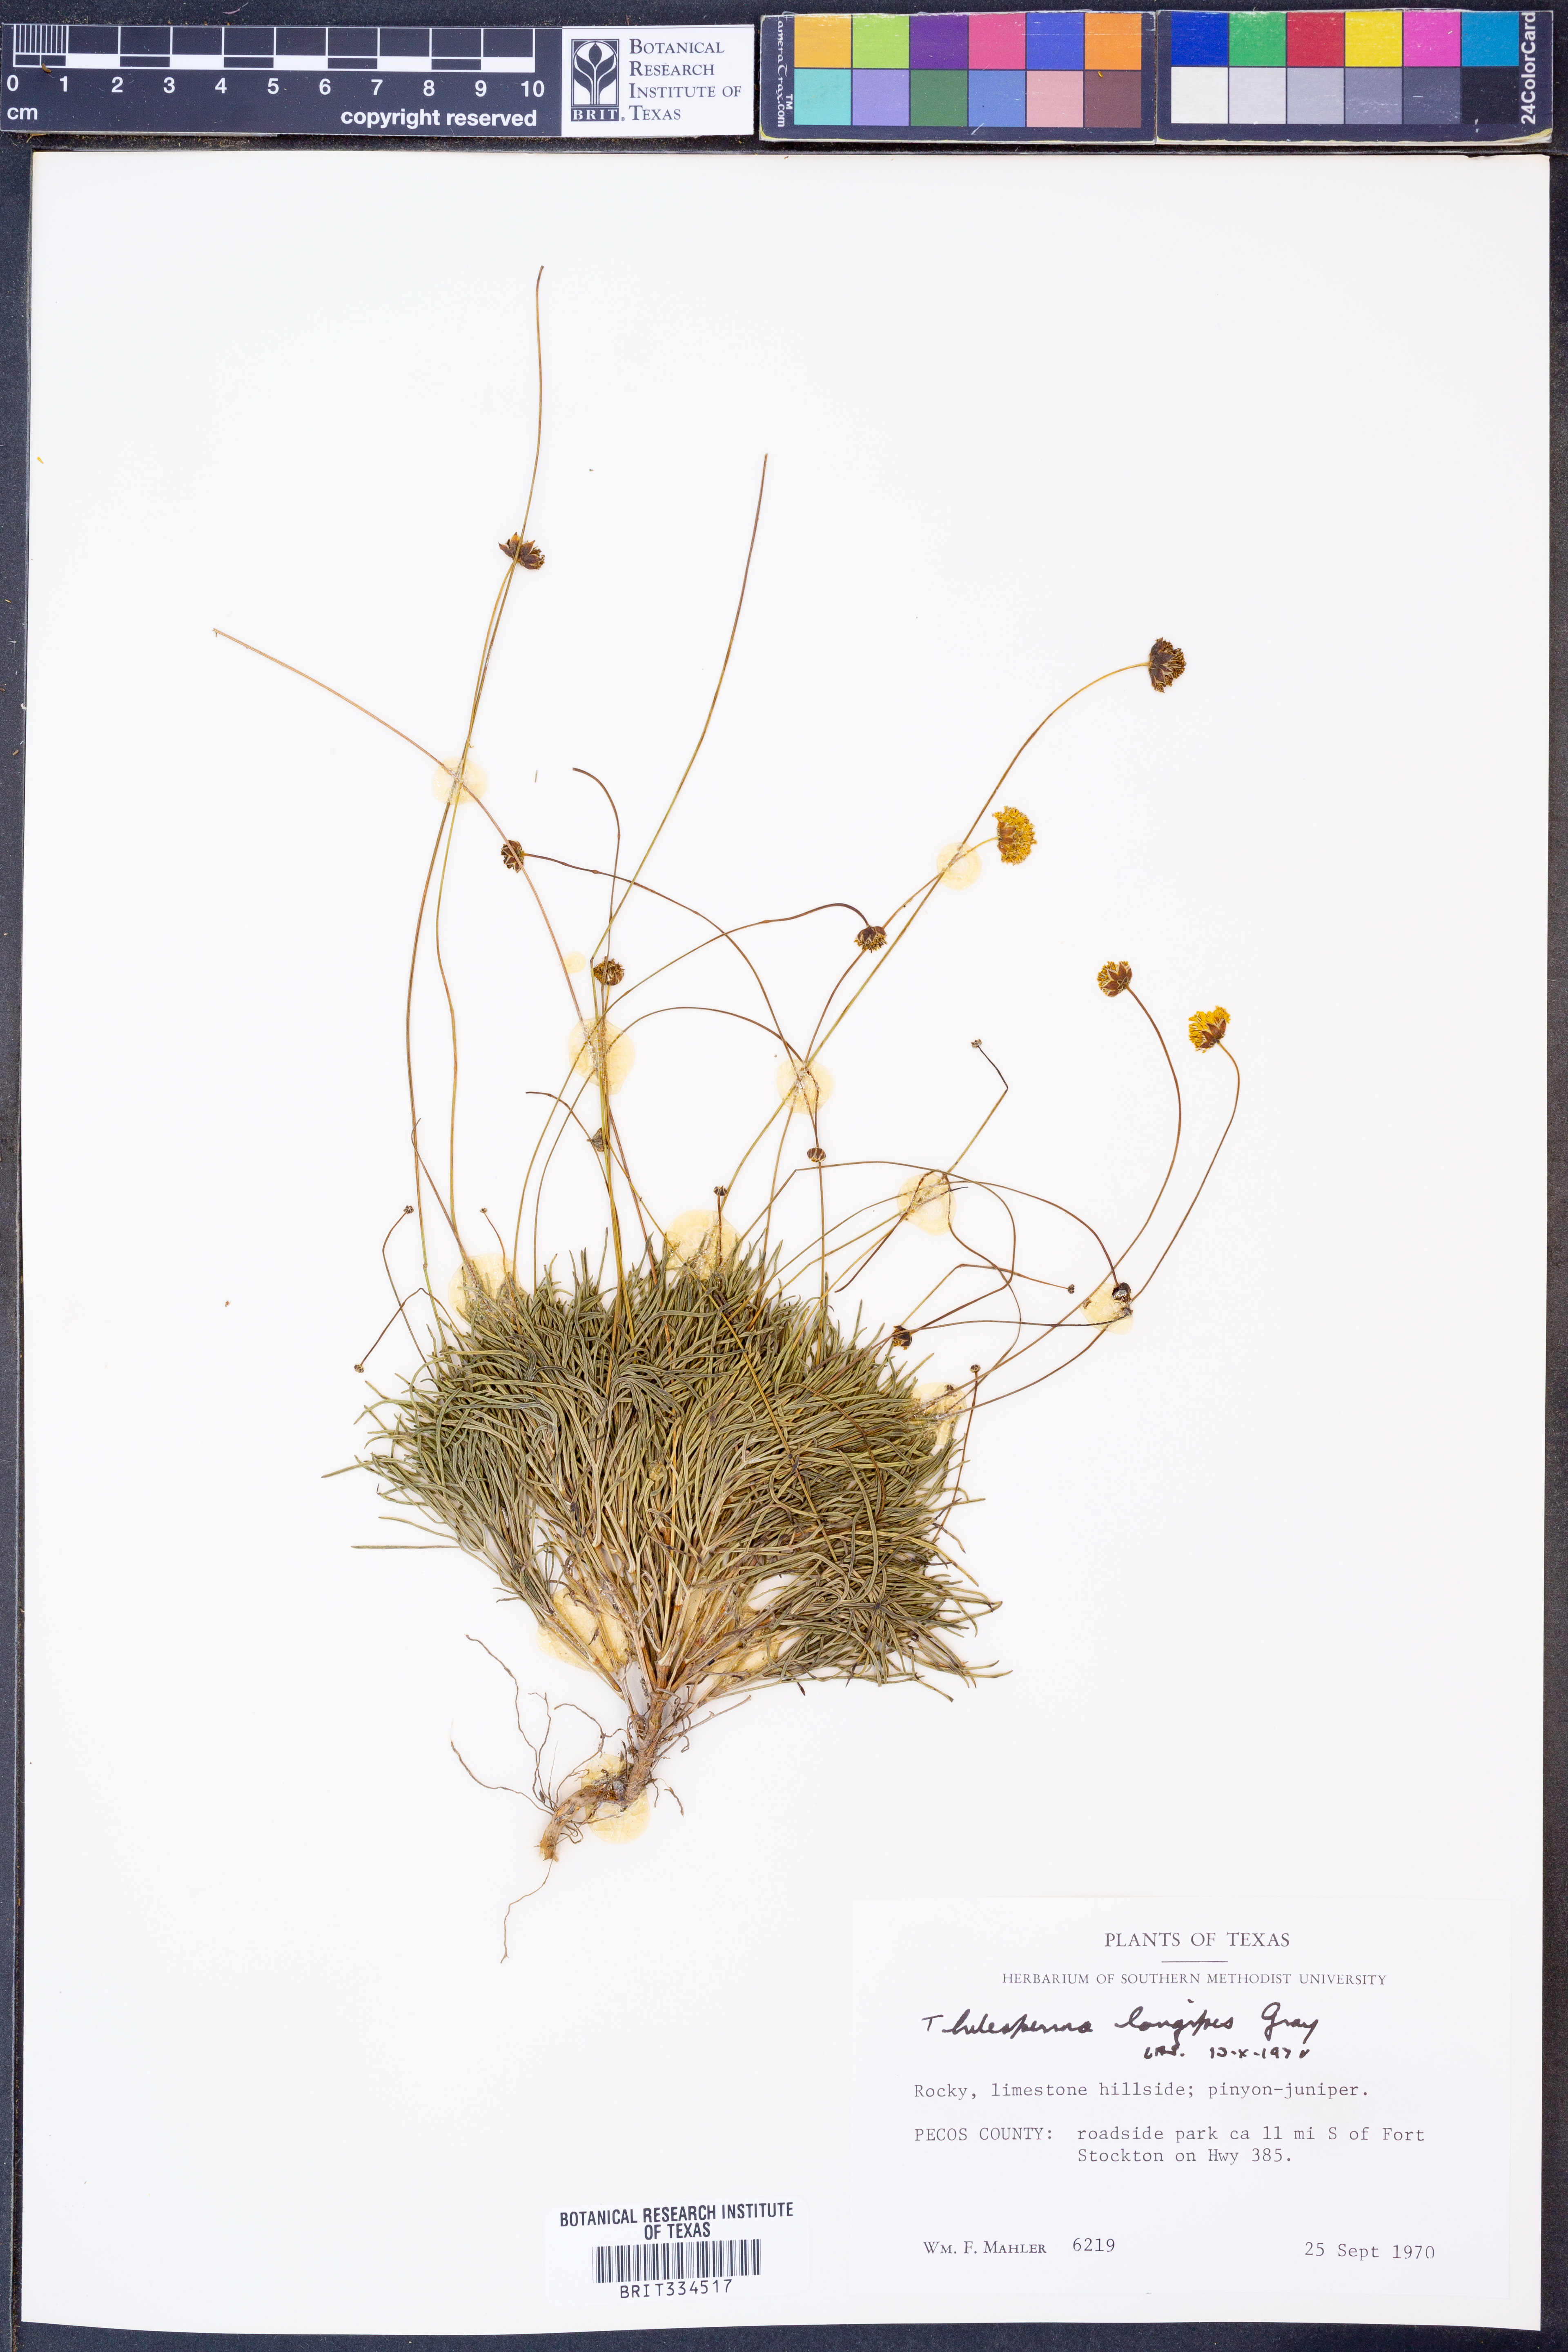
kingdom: Plantae
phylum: Tracheophyta
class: Magnoliopsida
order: Asterales
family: Asteraceae
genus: Thelesperma
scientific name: Thelesperma longipes
